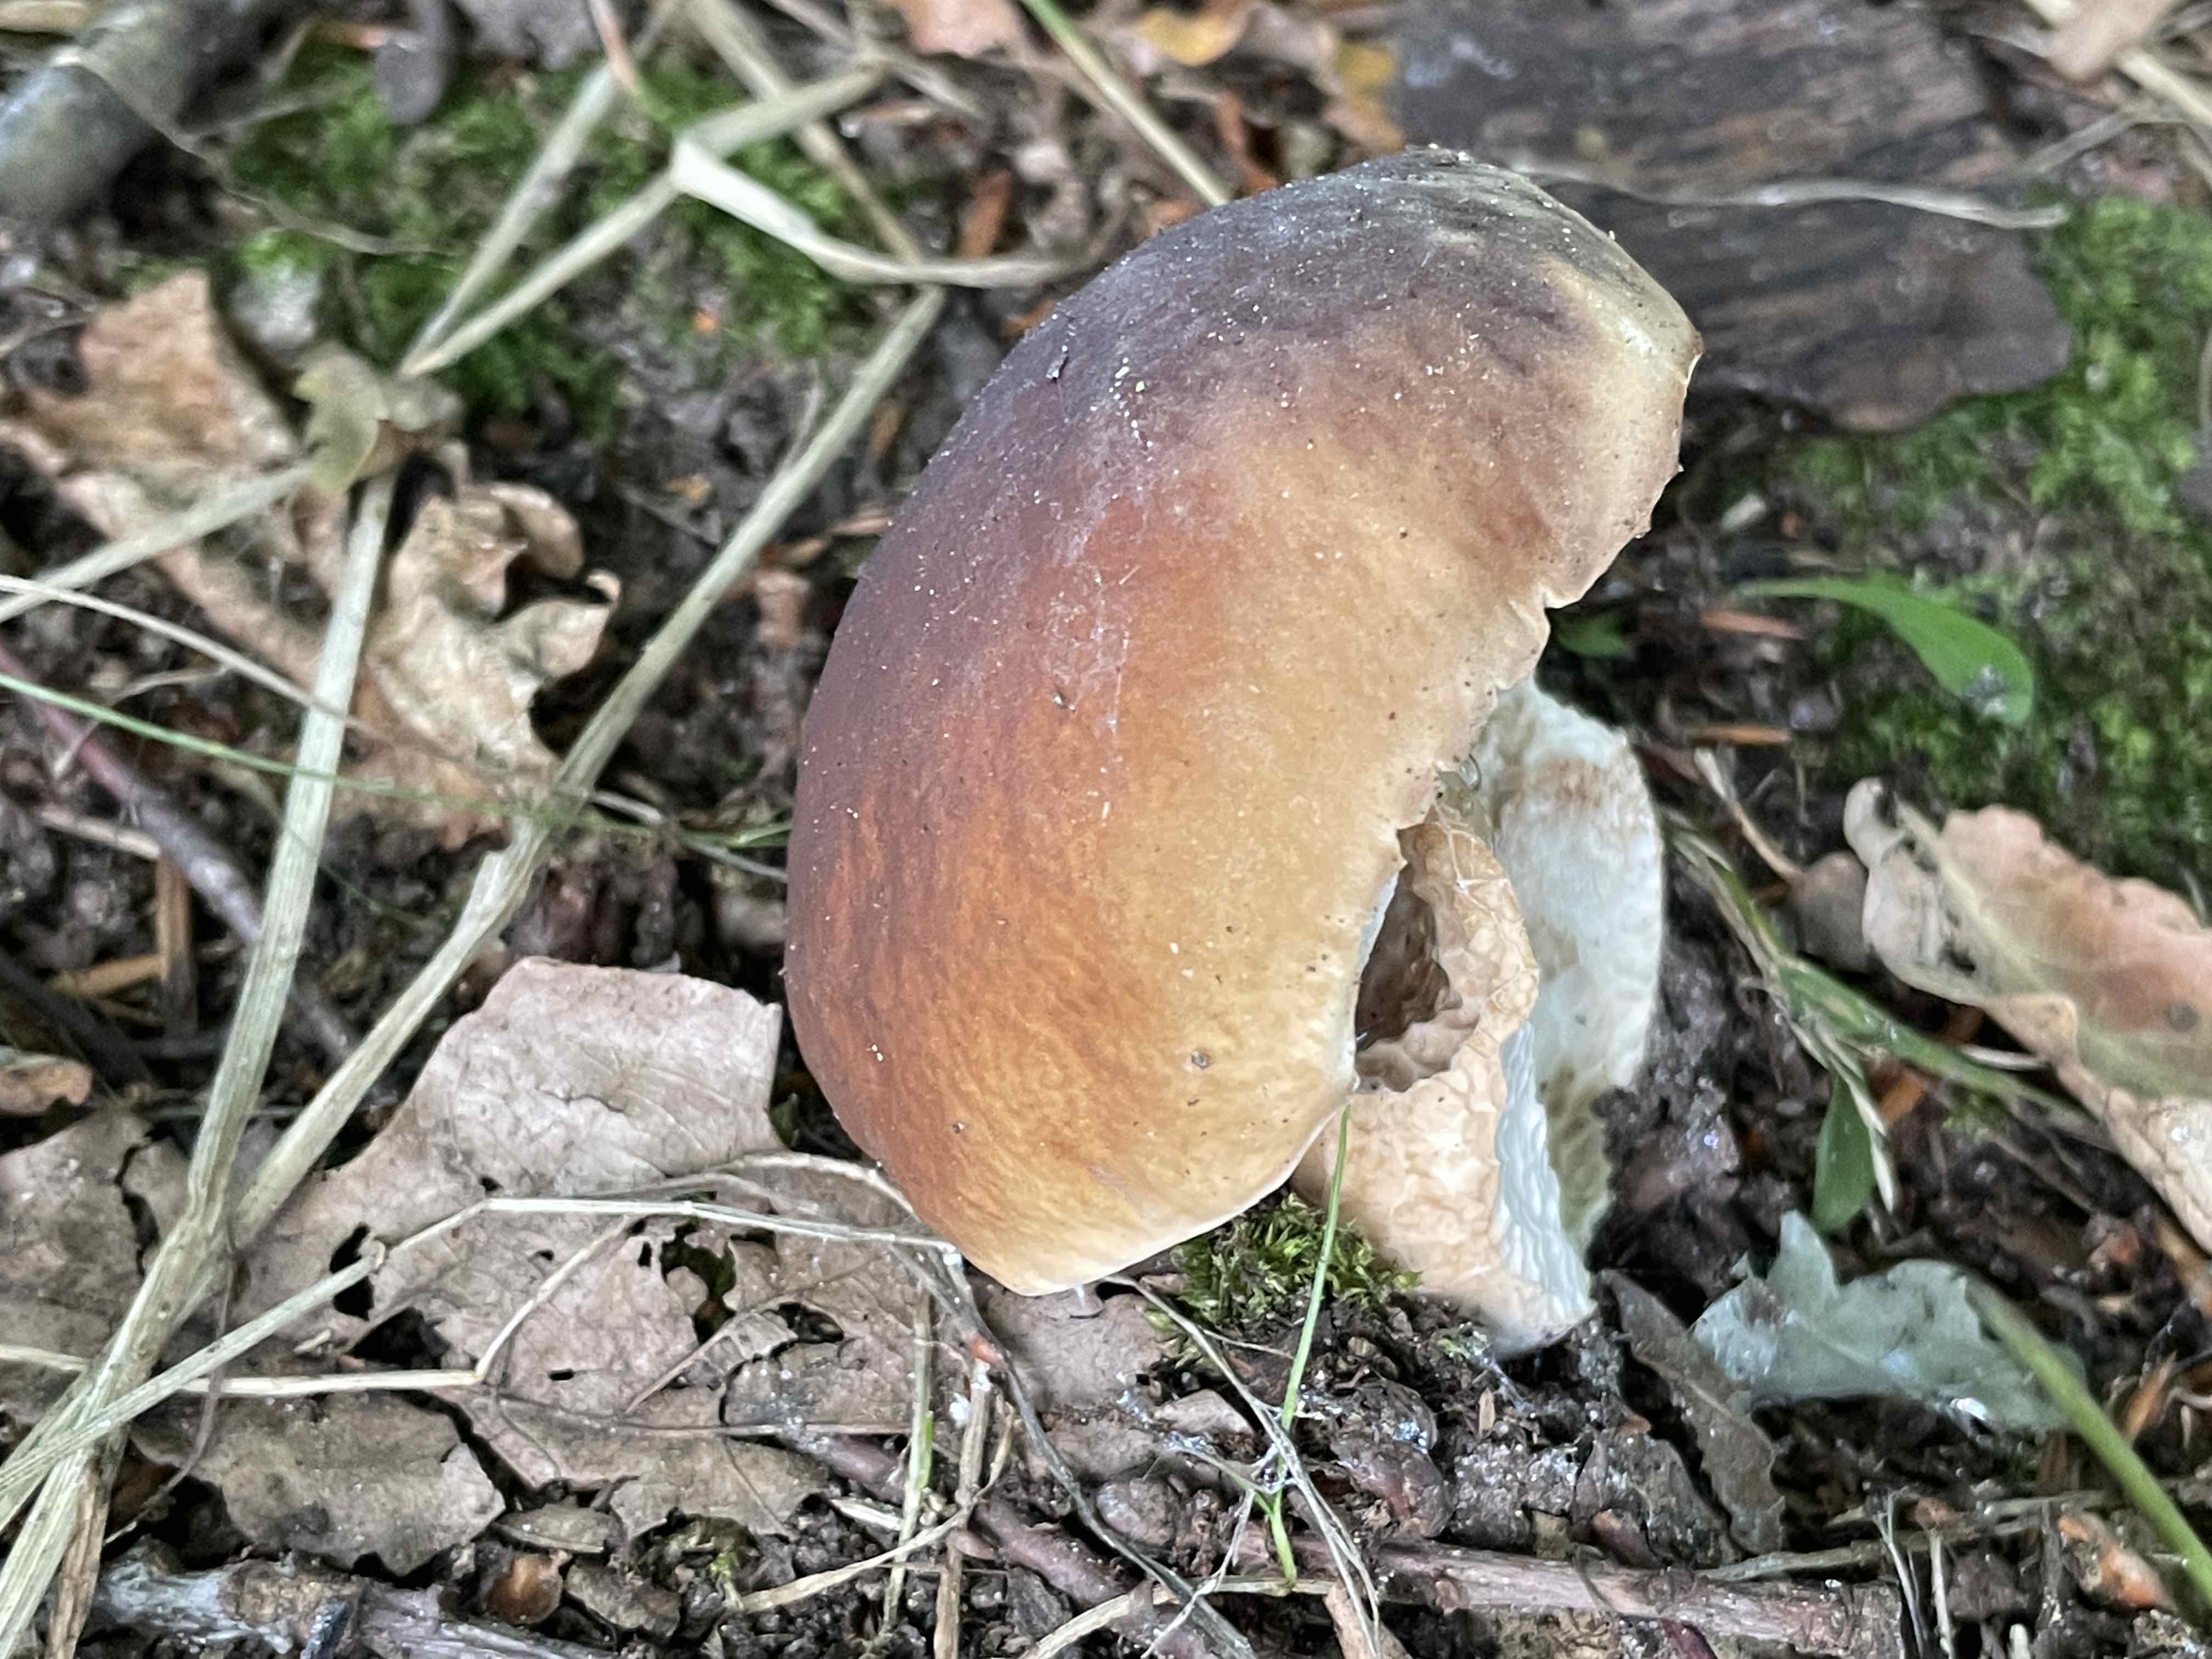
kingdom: Fungi
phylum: Basidiomycota
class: Agaricomycetes
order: Boletales
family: Boletaceae
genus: Boletus
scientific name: Boletus edulis
